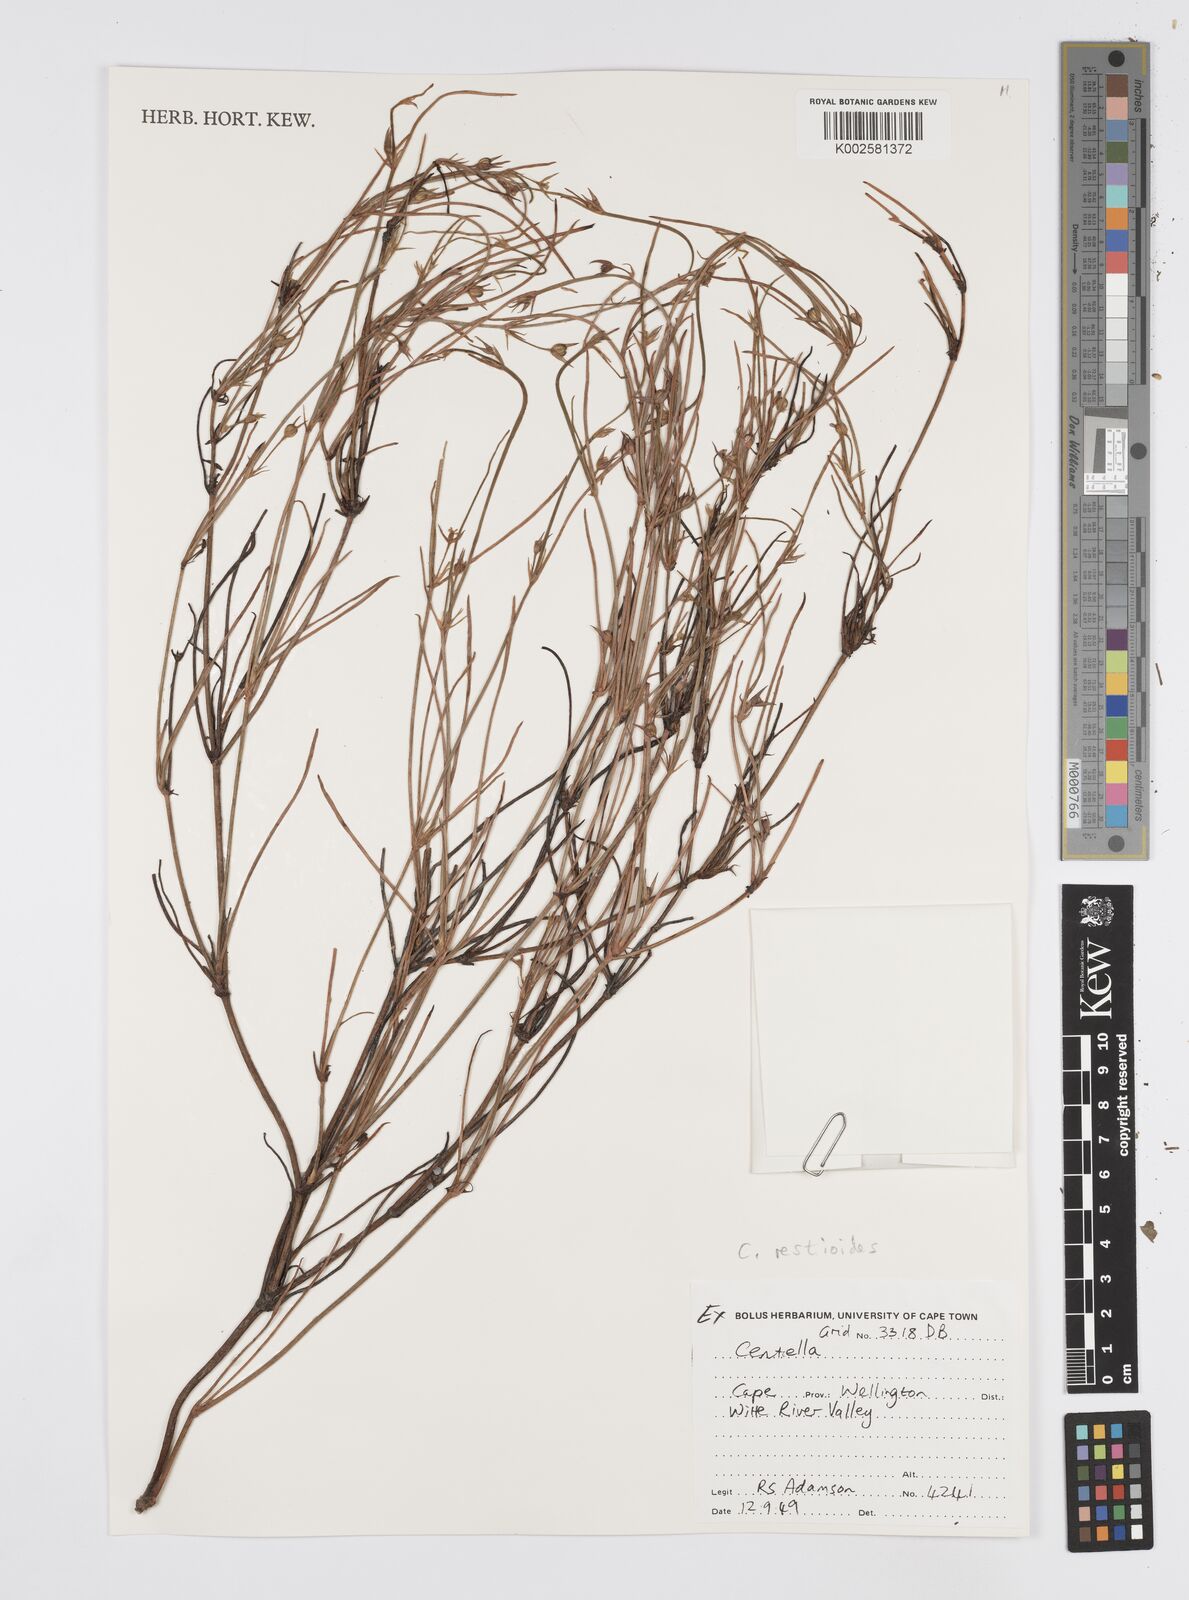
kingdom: Plantae
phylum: Tracheophyta
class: Magnoliopsida
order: Apiales
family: Apiaceae
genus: Centella
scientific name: Centella
